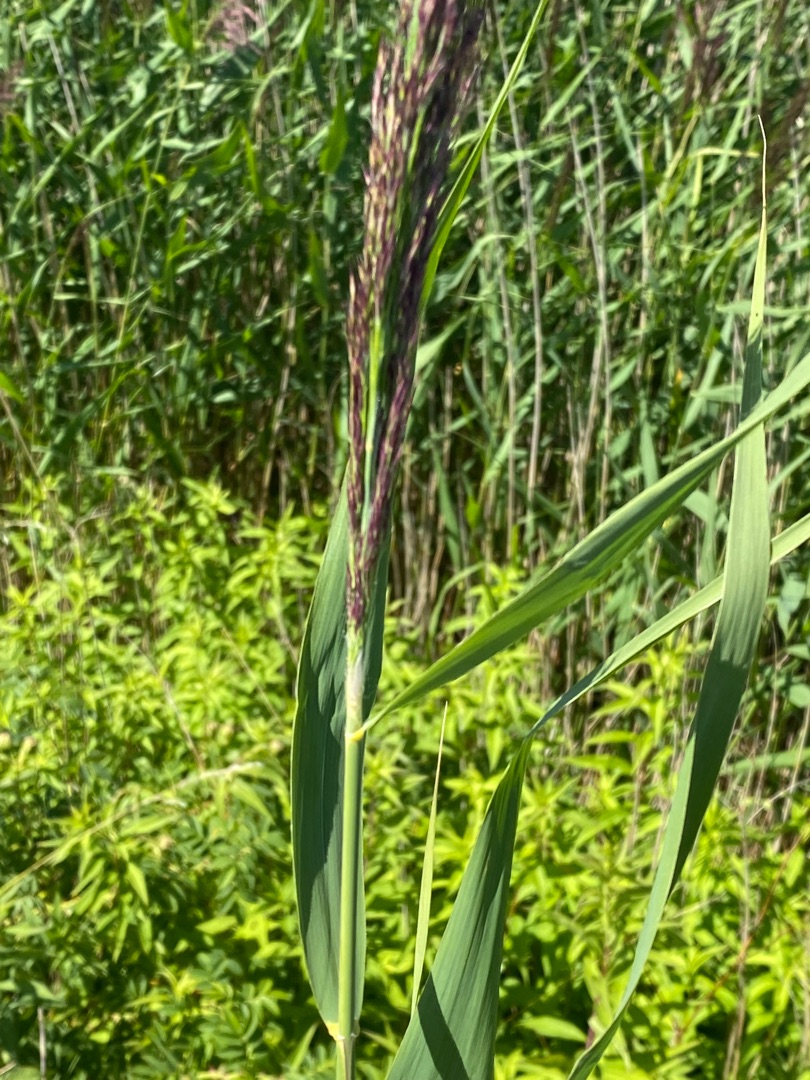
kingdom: Plantae
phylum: Tracheophyta
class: Liliopsida
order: Poales
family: Poaceae
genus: Phragmites
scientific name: Phragmites australis
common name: Tagrør
